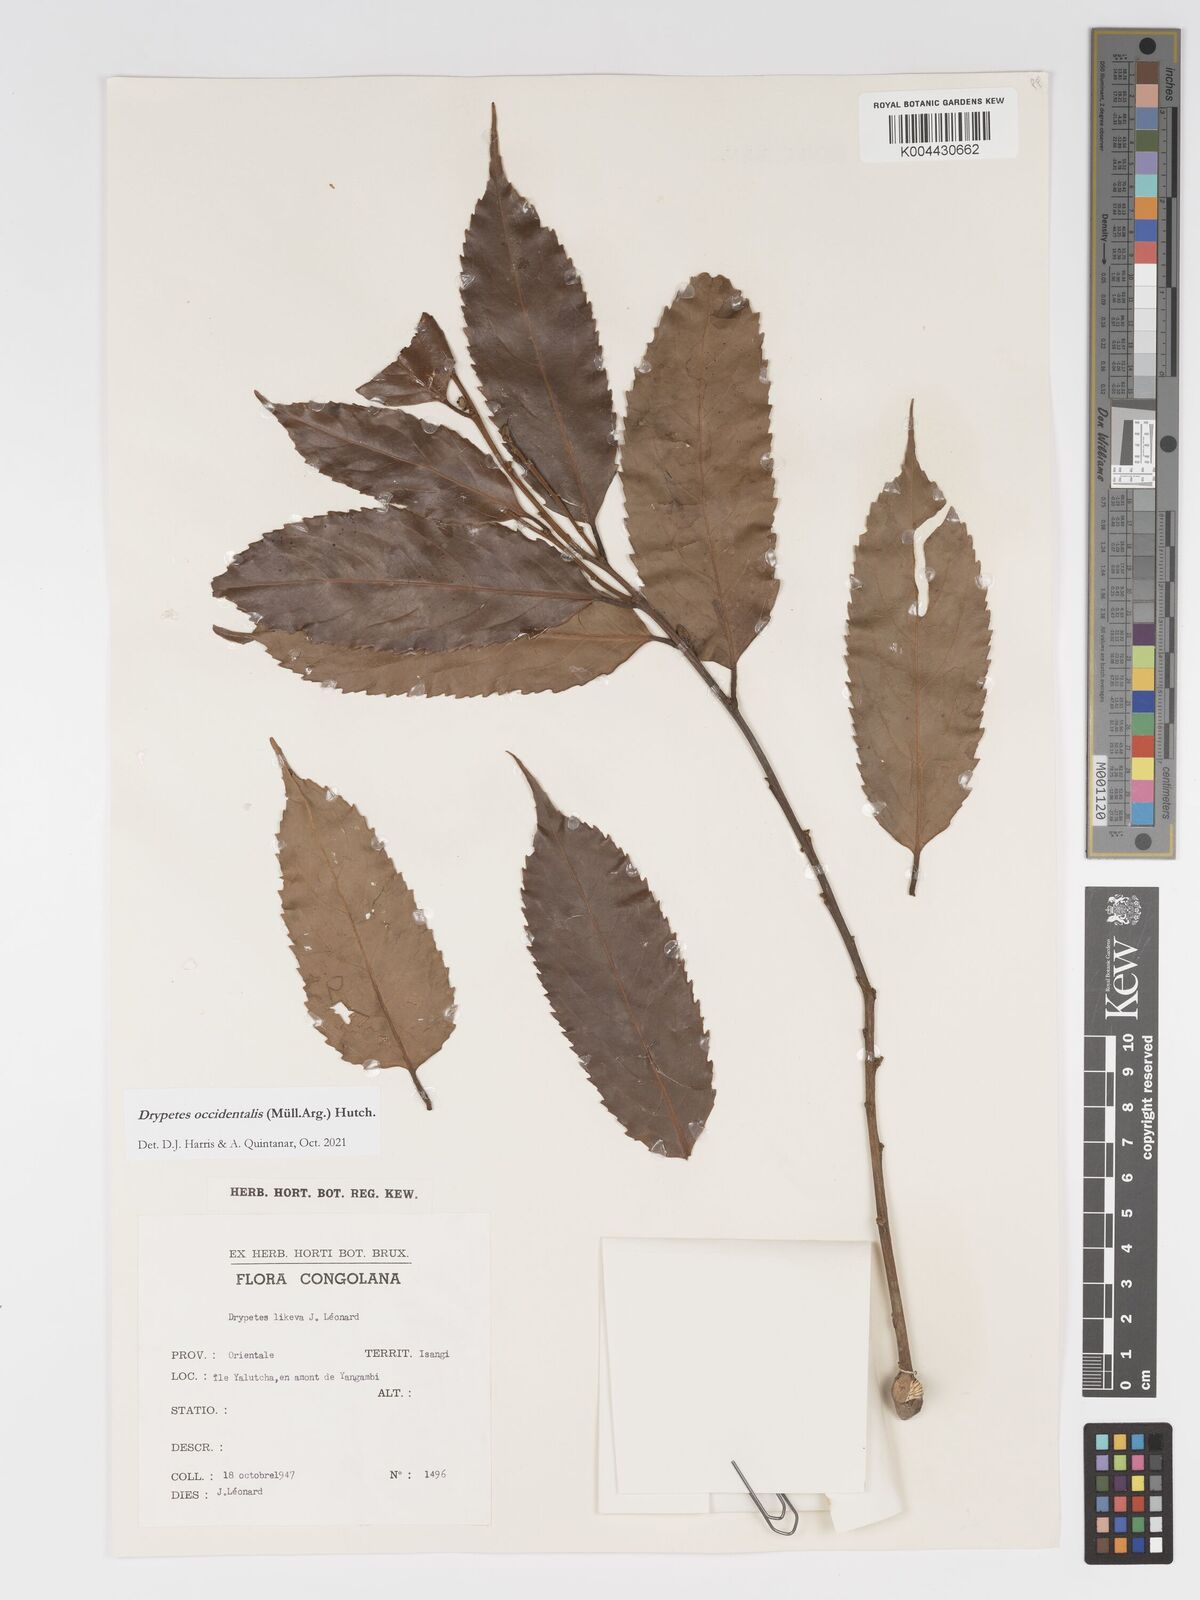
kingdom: Plantae
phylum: Tracheophyta
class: Magnoliopsida
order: Malpighiales
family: Putranjivaceae
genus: Drypetes
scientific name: Drypetes occidentalis
